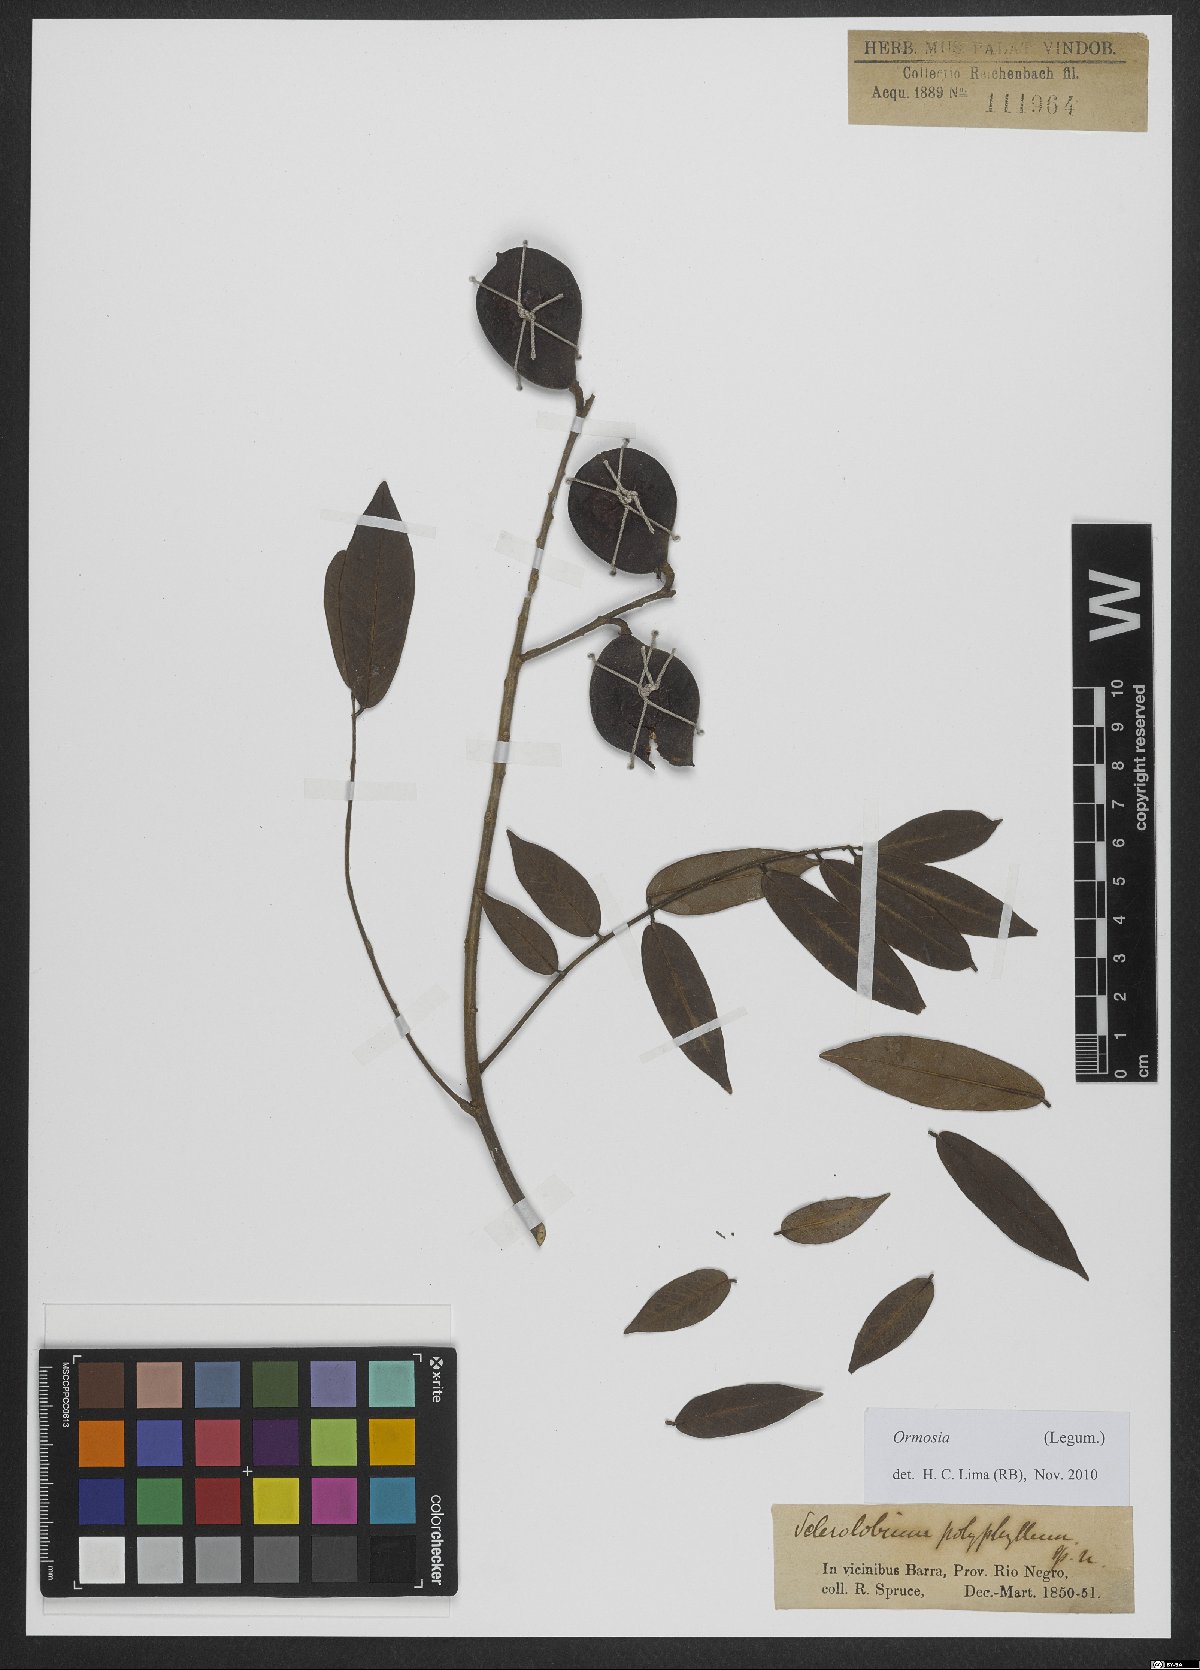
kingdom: Plantae
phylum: Tracheophyta
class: Magnoliopsida
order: Fabales
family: Fabaceae
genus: Ormosia
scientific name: Ormosia
